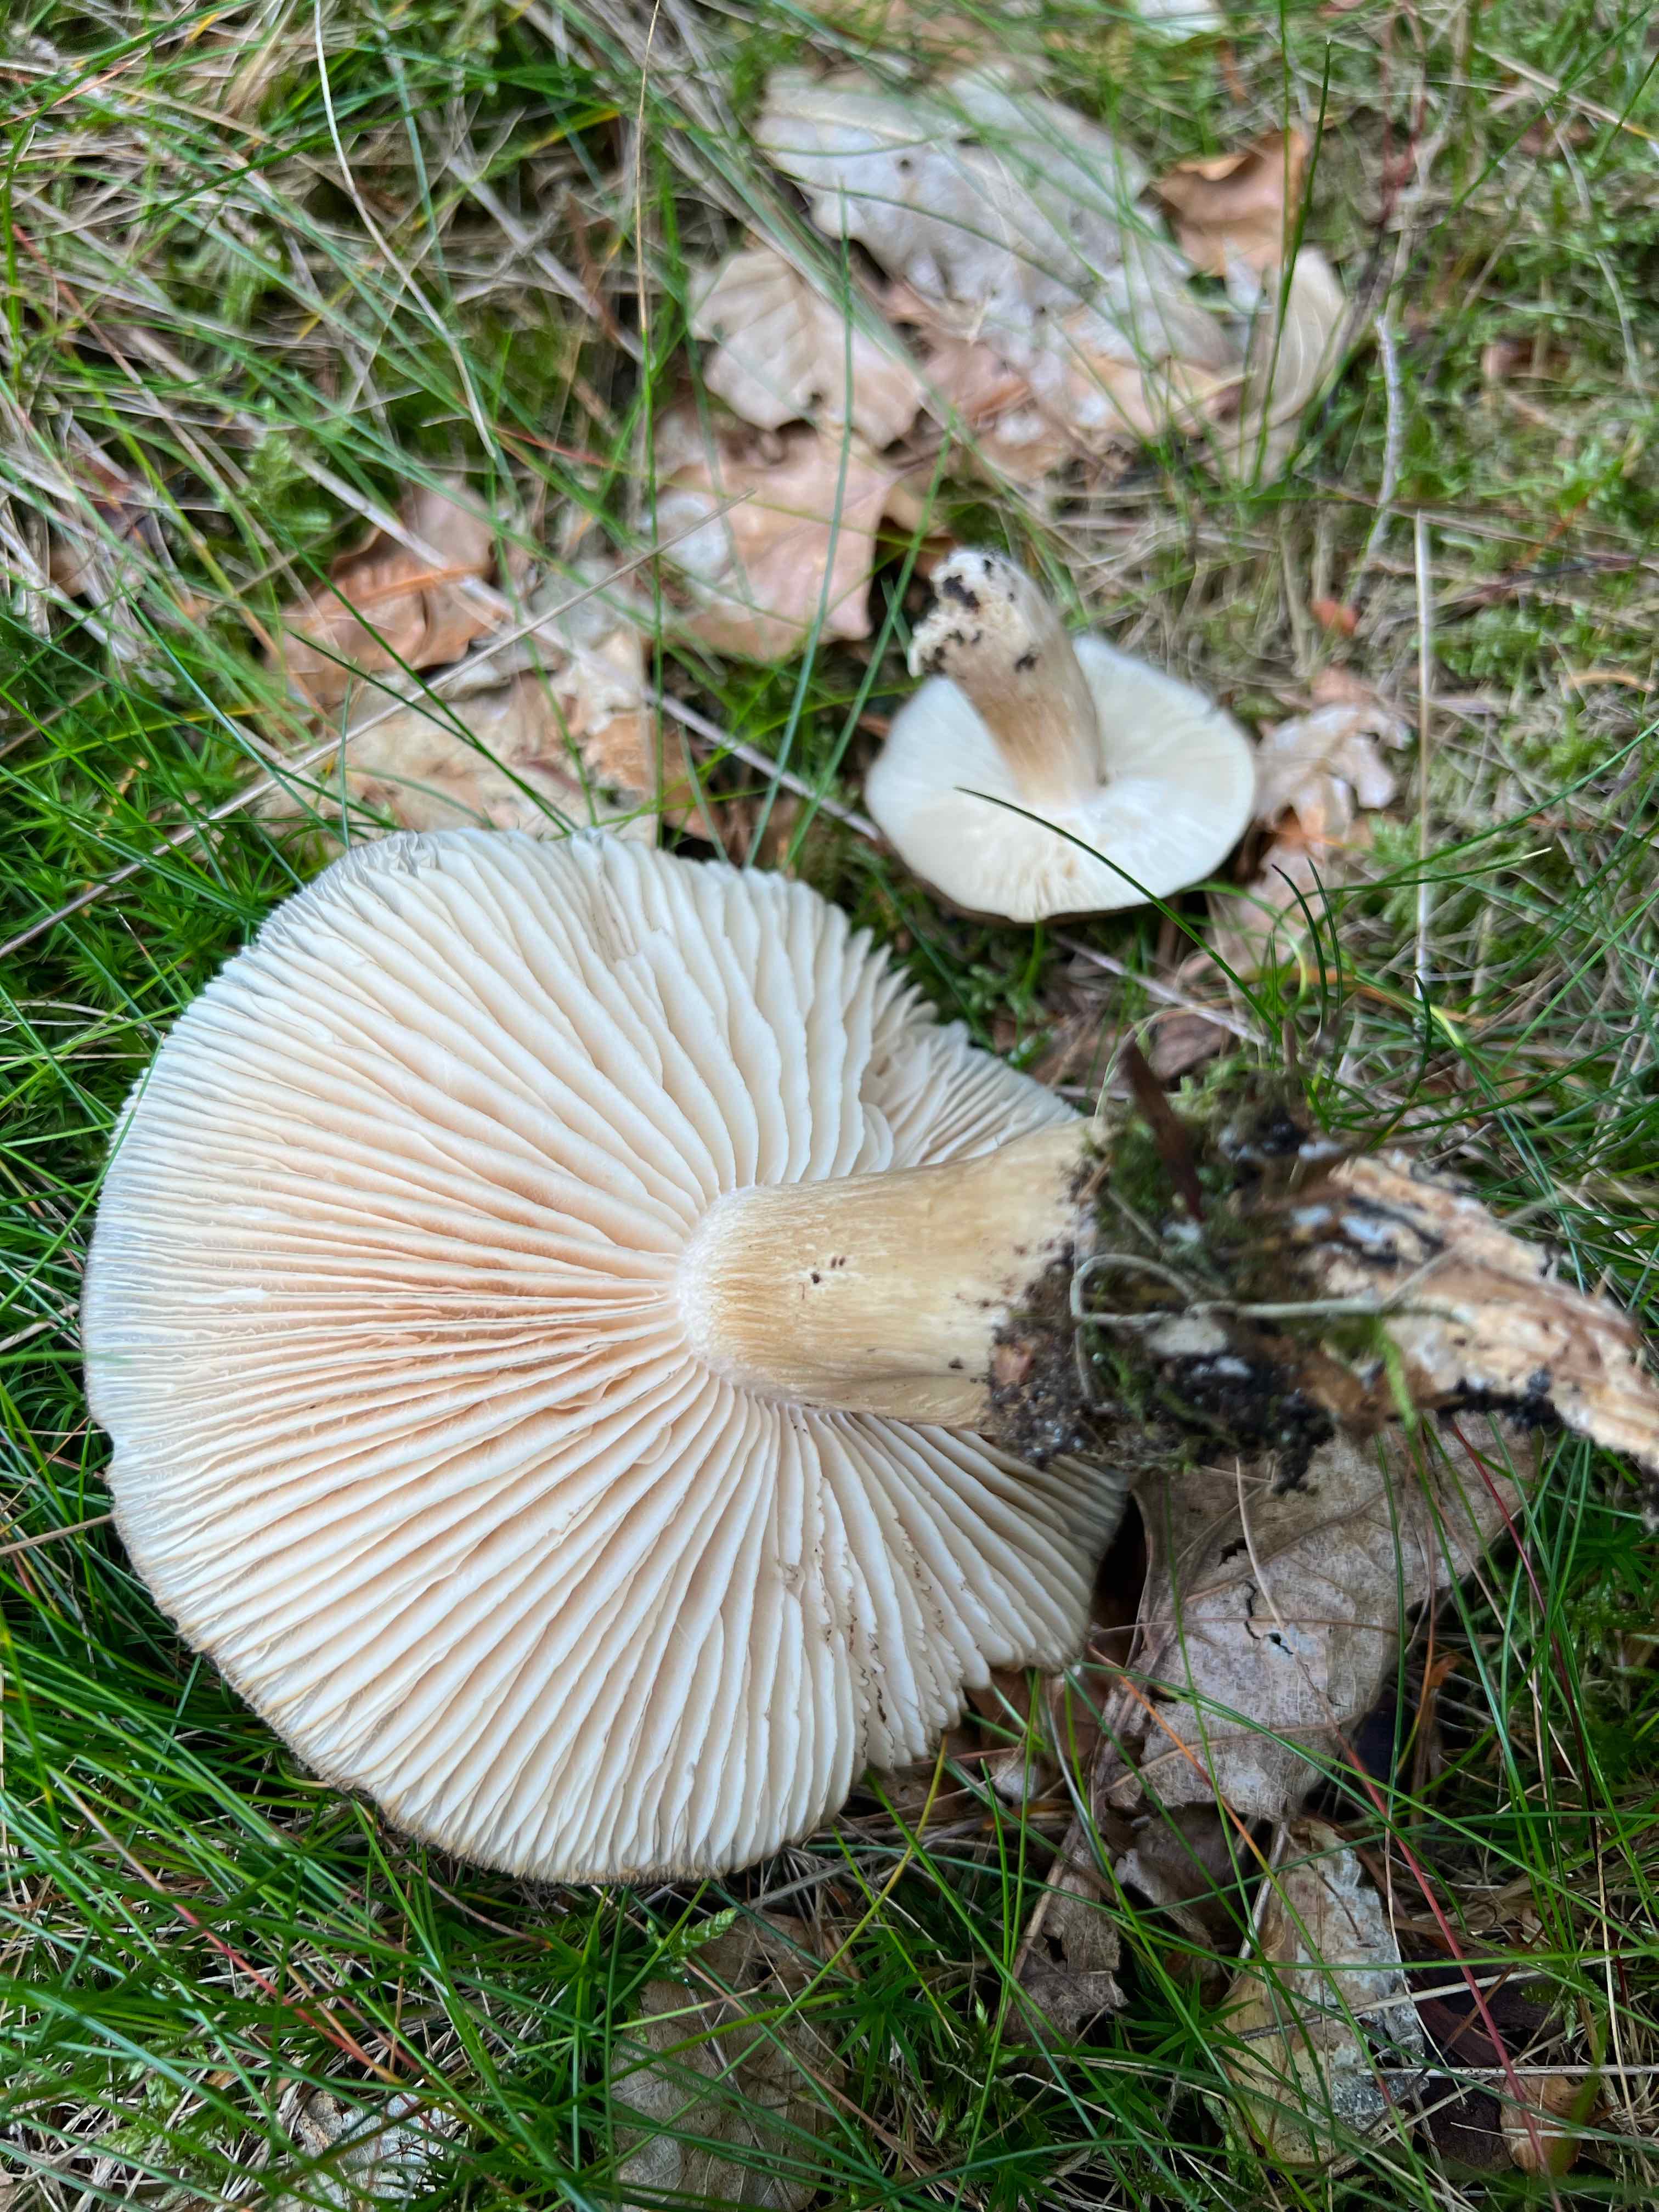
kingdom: Fungi
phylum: Basidiomycota
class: Agaricomycetes
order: Agaricales
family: Tricholomataceae
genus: Megacollybia
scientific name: Megacollybia platyphylla
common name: bredbladet væbnerhat
